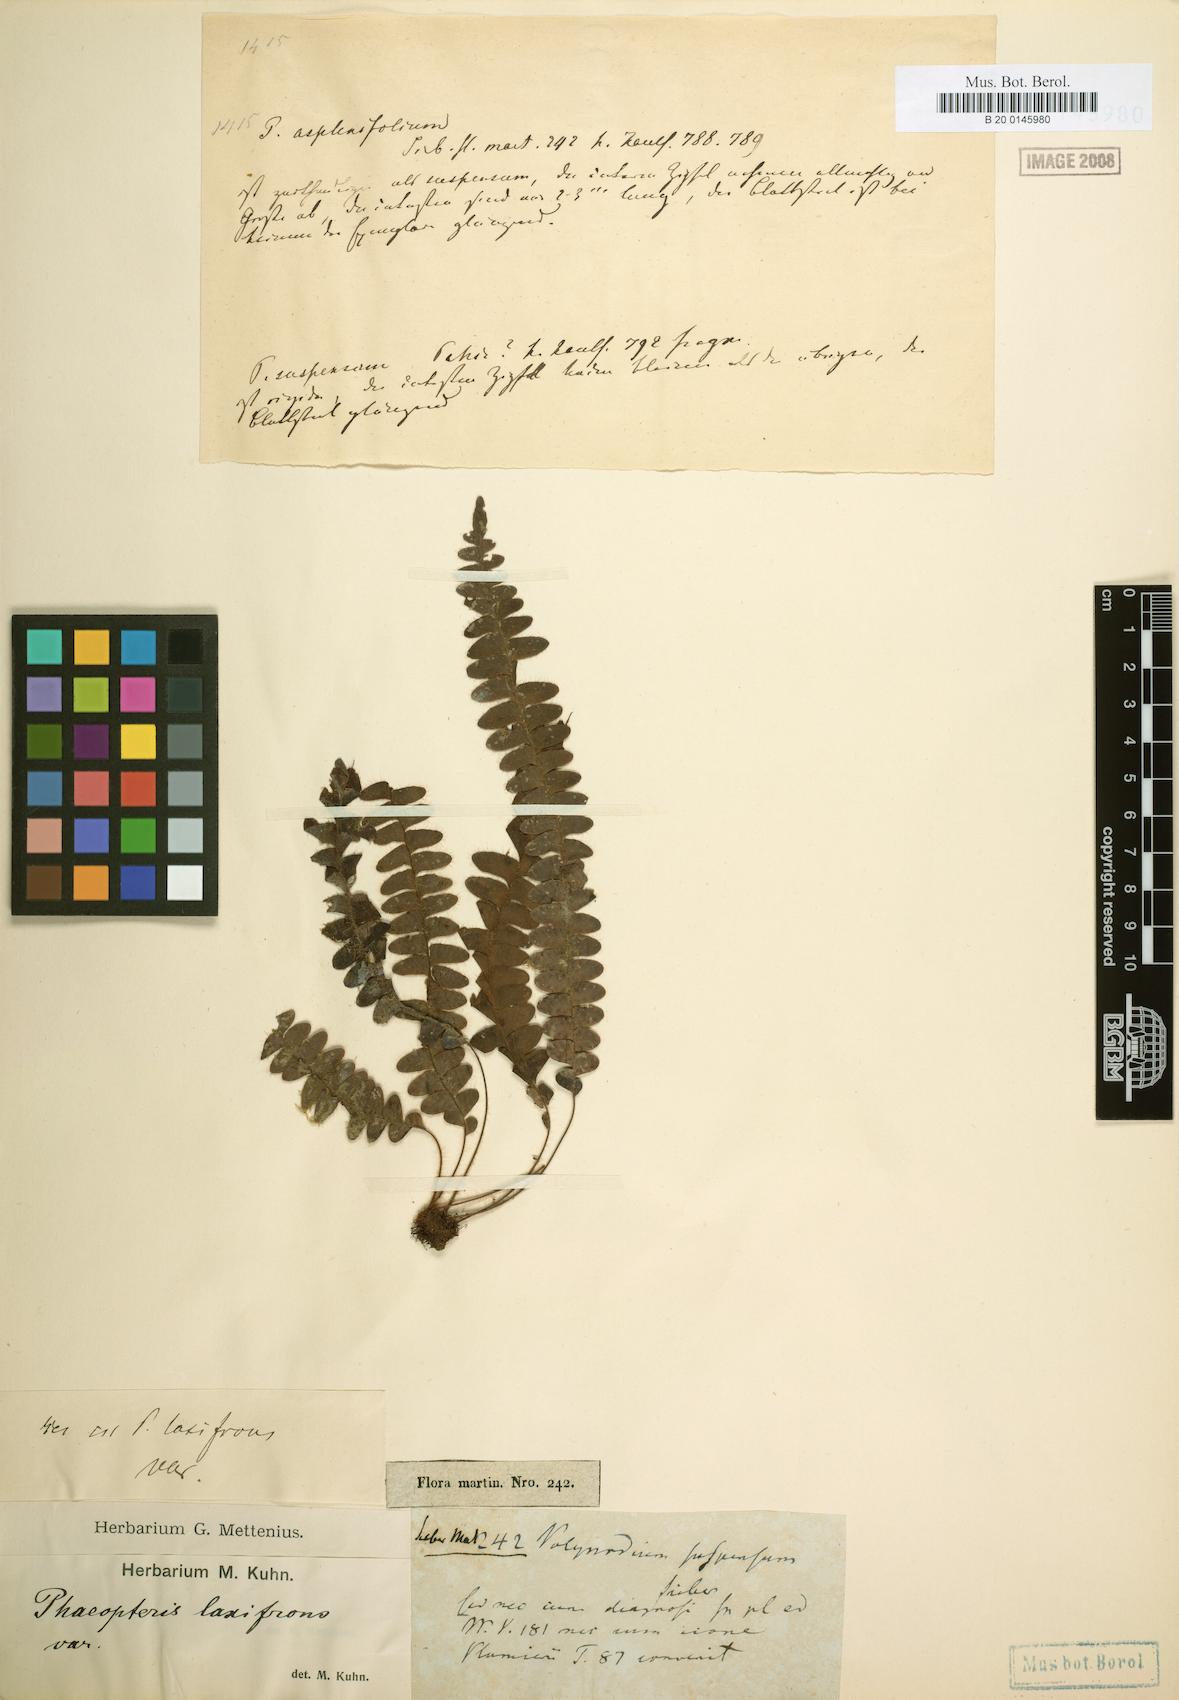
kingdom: Plantae
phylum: Tracheophyta
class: Polypodiopsida
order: Polypodiales
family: Polypodiaceae
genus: Terpsichore
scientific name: Terpsichore asplenifolia
